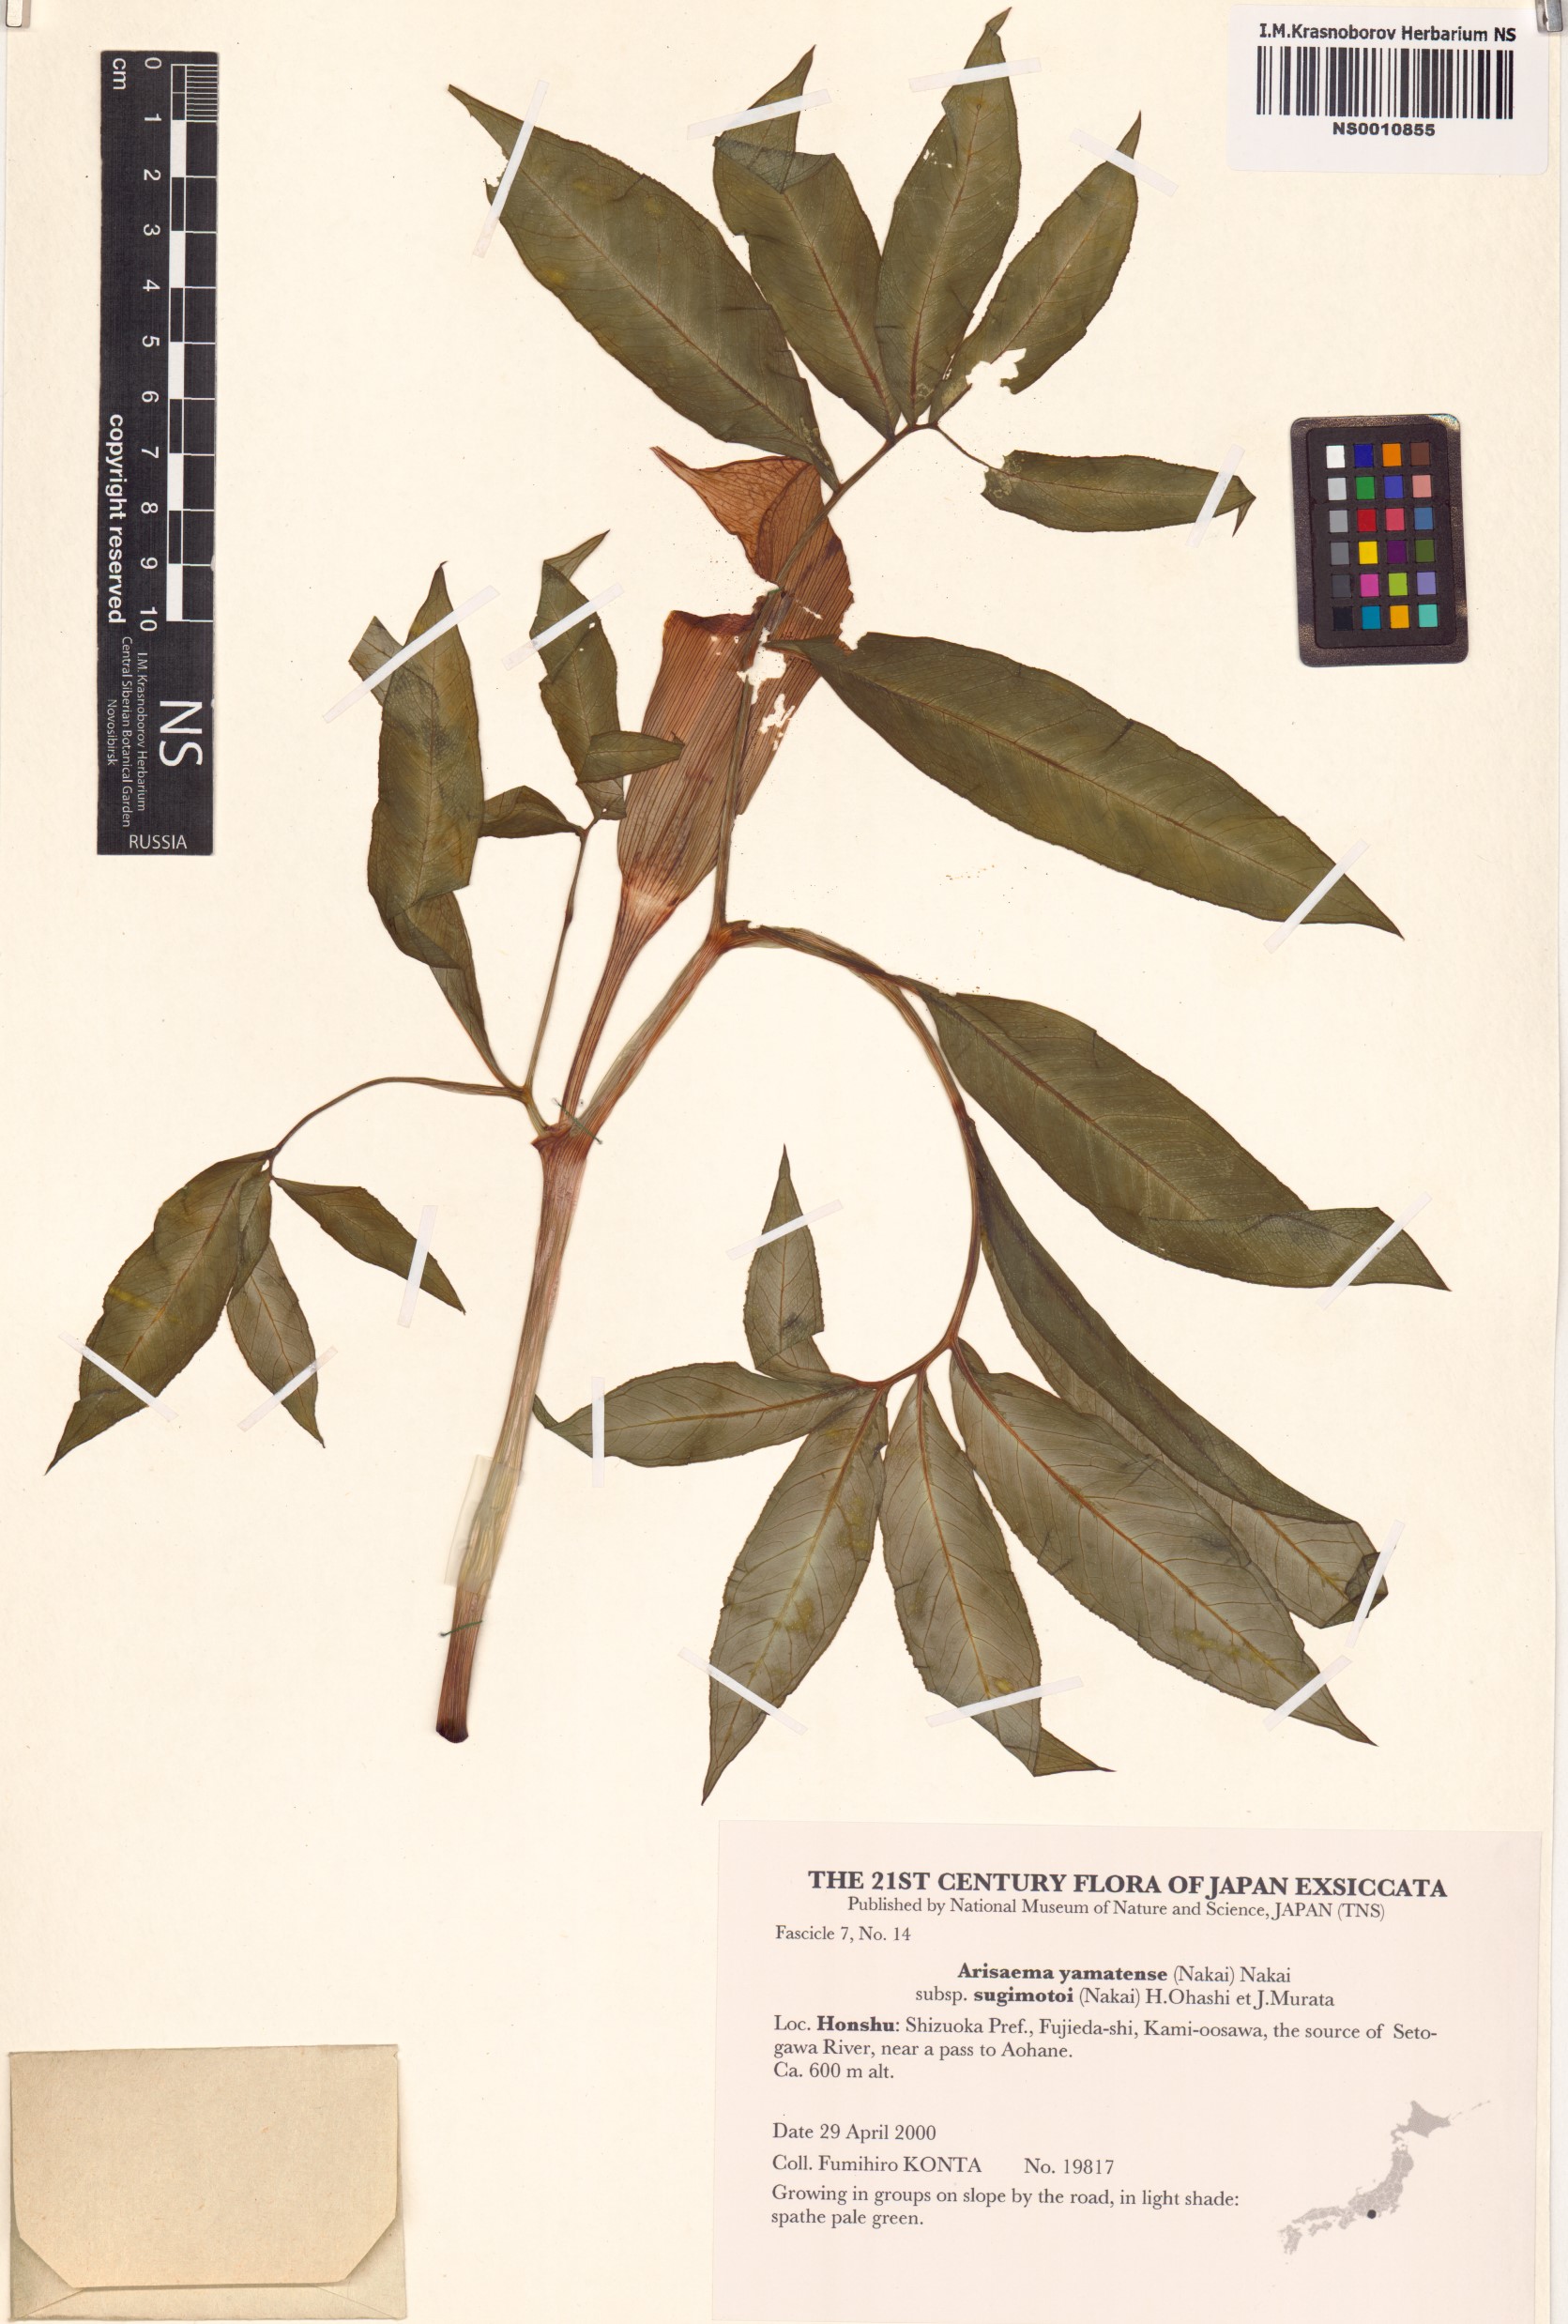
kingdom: Plantae
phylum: Tracheophyta
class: Liliopsida
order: Alismatales
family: Araceae
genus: Arisaema
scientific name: Arisaema yamatense
